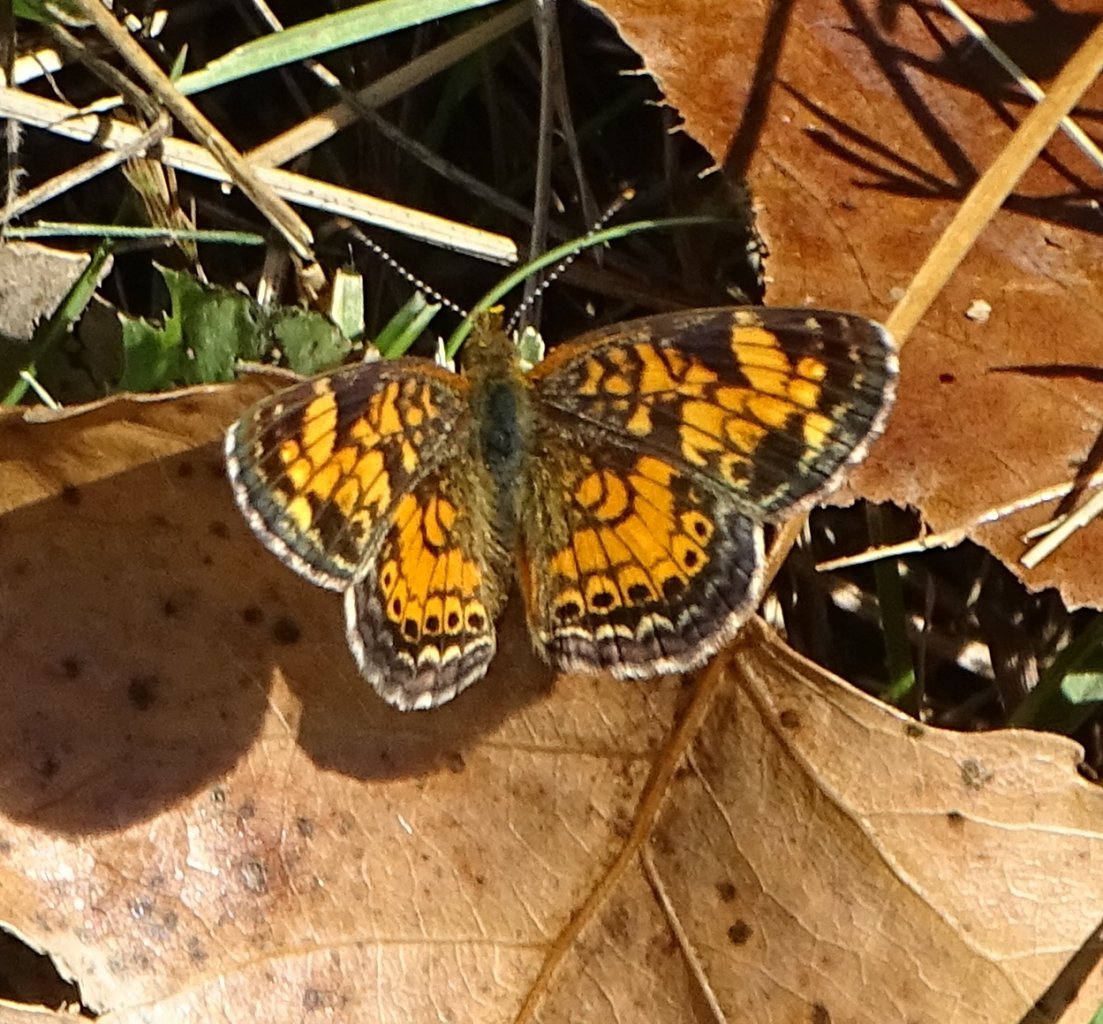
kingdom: Animalia
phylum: Arthropoda
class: Insecta
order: Lepidoptera
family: Nymphalidae
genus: Phyciodes
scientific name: Phyciodes
